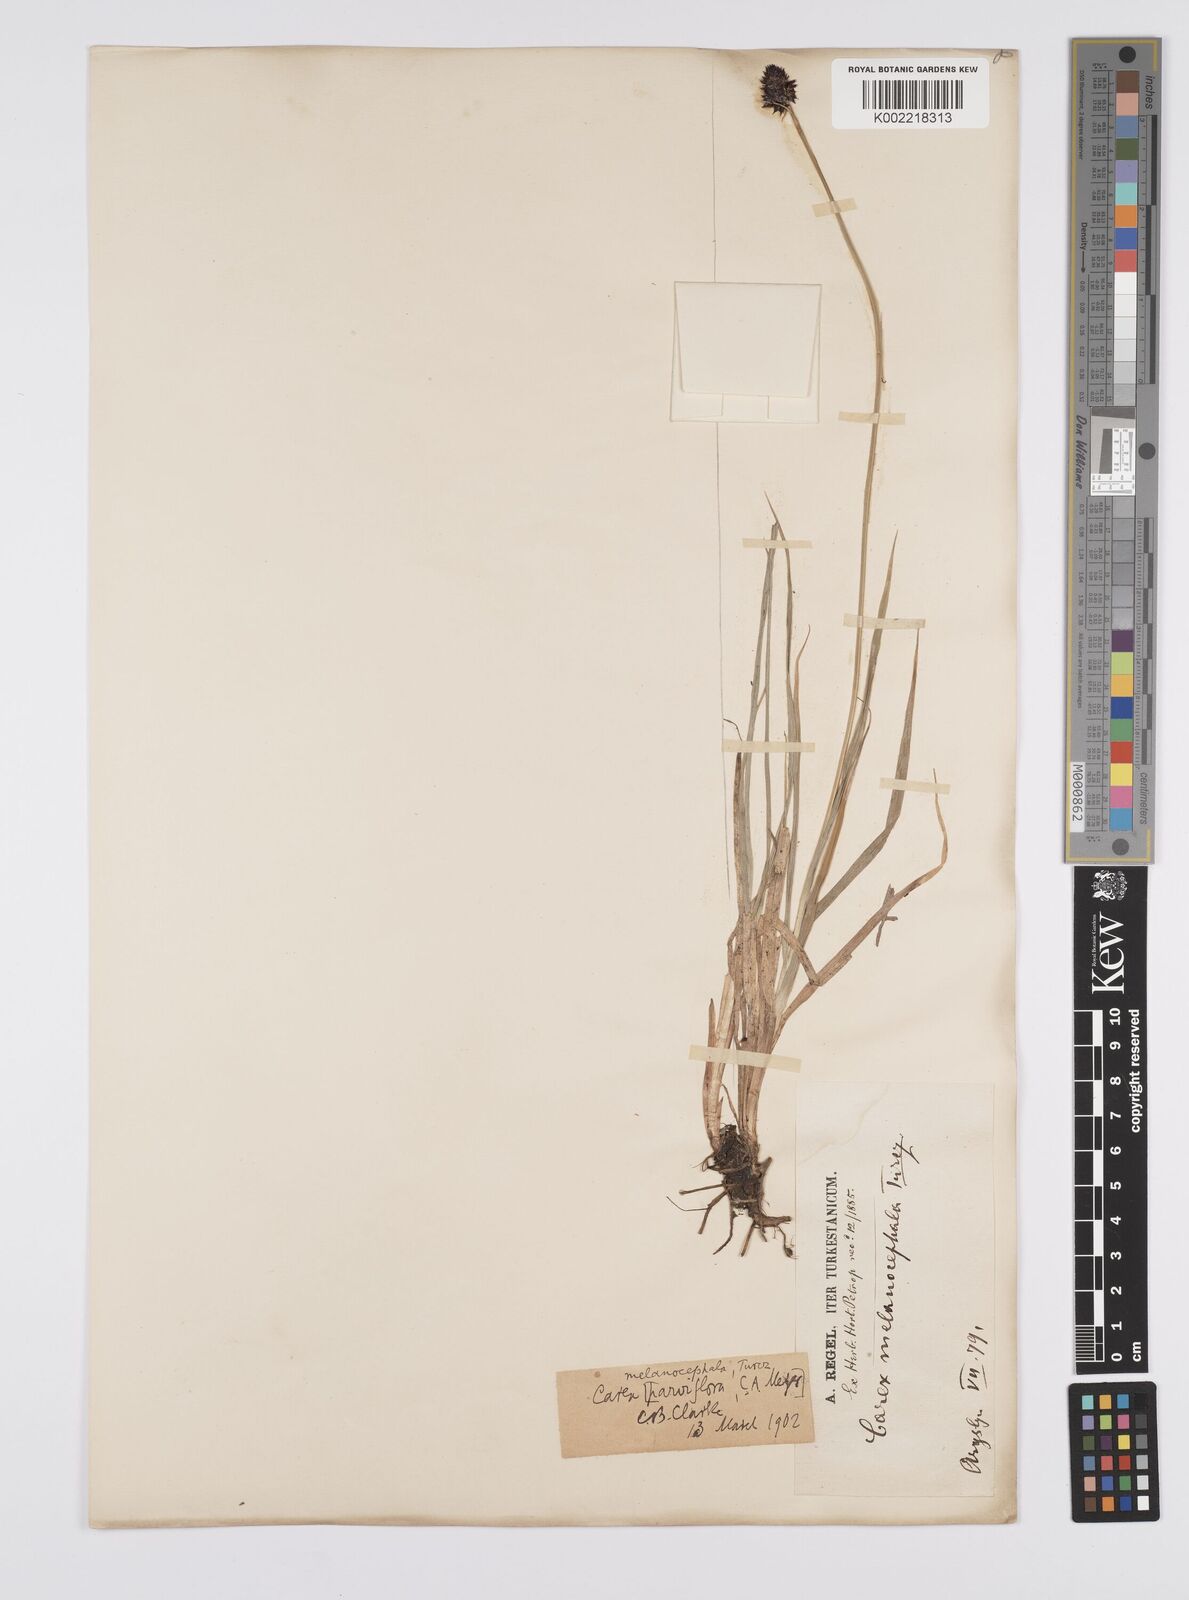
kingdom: Plantae
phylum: Tracheophyta
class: Liliopsida
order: Poales
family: Cyperaceae
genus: Carex
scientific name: Carex melanocephala
